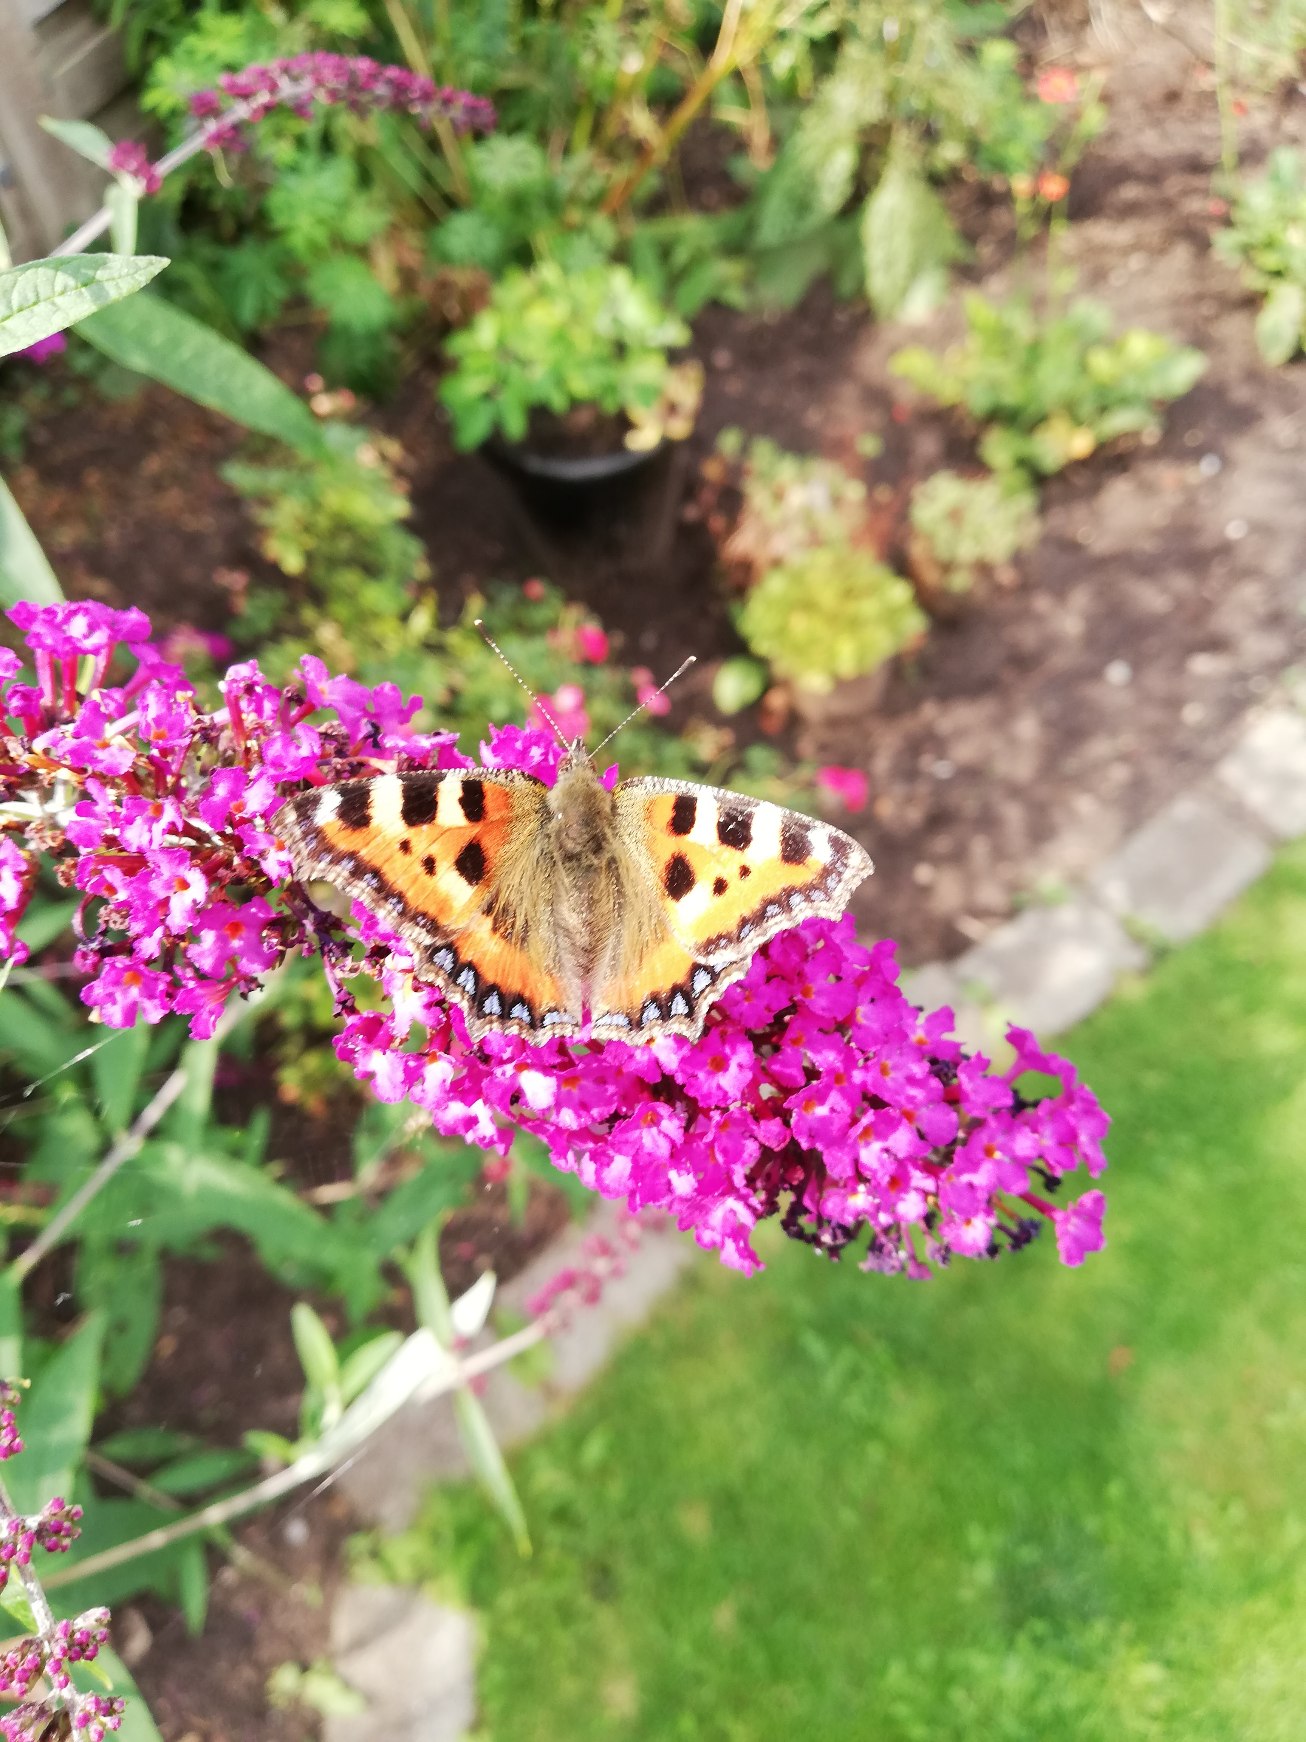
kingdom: Animalia
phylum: Arthropoda
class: Insecta
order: Lepidoptera
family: Nymphalidae
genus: Aglais
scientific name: Aglais urticae
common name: Nældens takvinge
